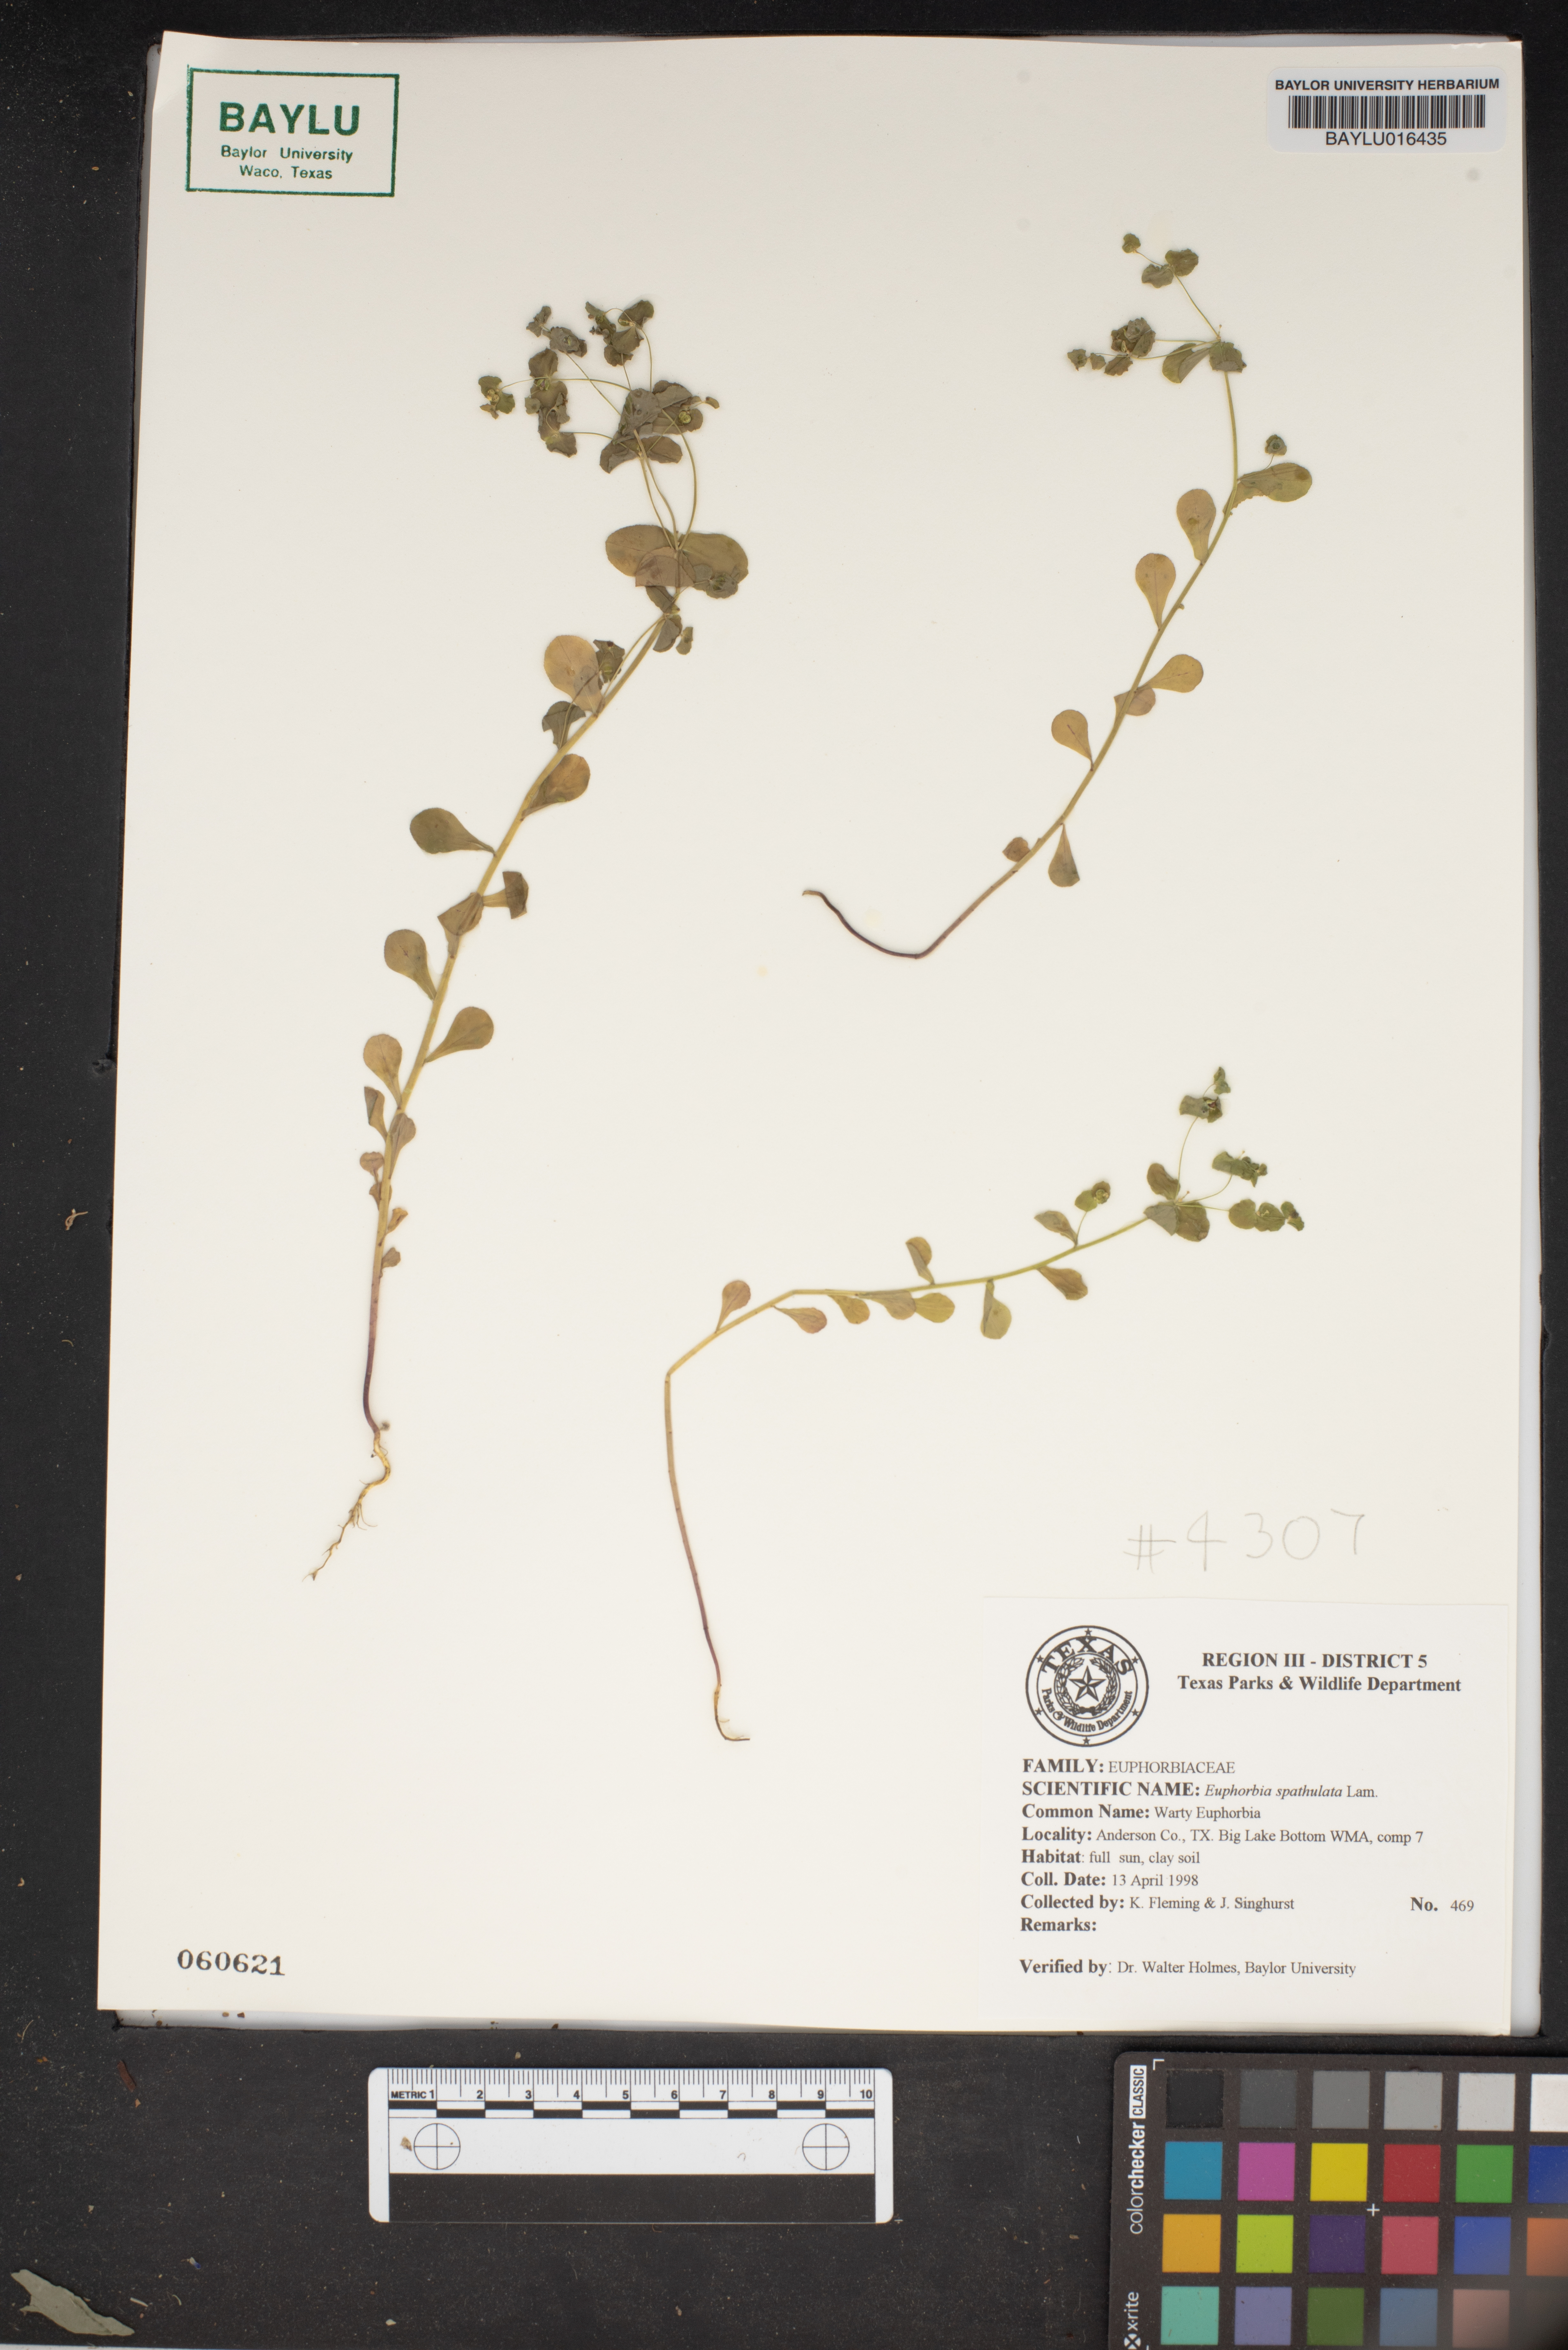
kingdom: Plantae
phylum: Tracheophyta
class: Magnoliopsida
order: Malpighiales
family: Euphorbiaceae
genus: Euphorbia
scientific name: Euphorbia spathulata
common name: Blunt spurge
